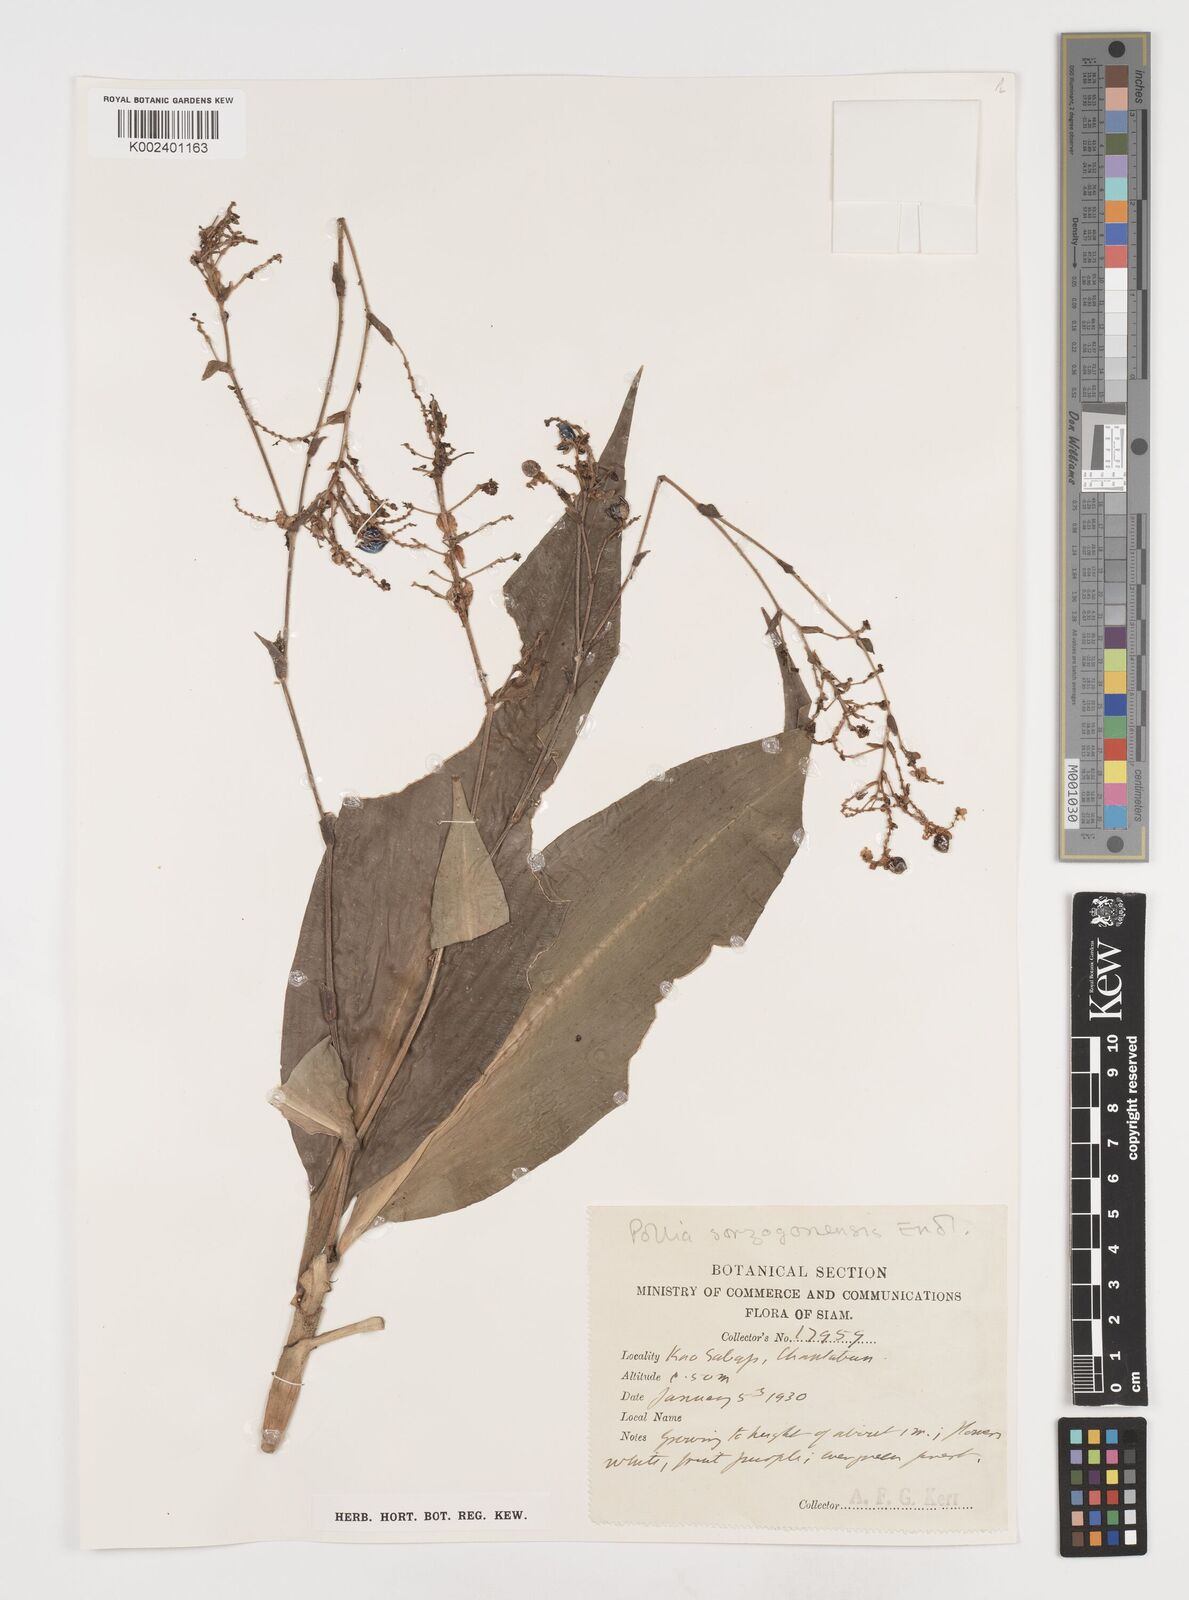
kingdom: Plantae
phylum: Tracheophyta
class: Liliopsida
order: Commelinales
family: Commelinaceae
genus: Pollia
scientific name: Pollia secundiflora
